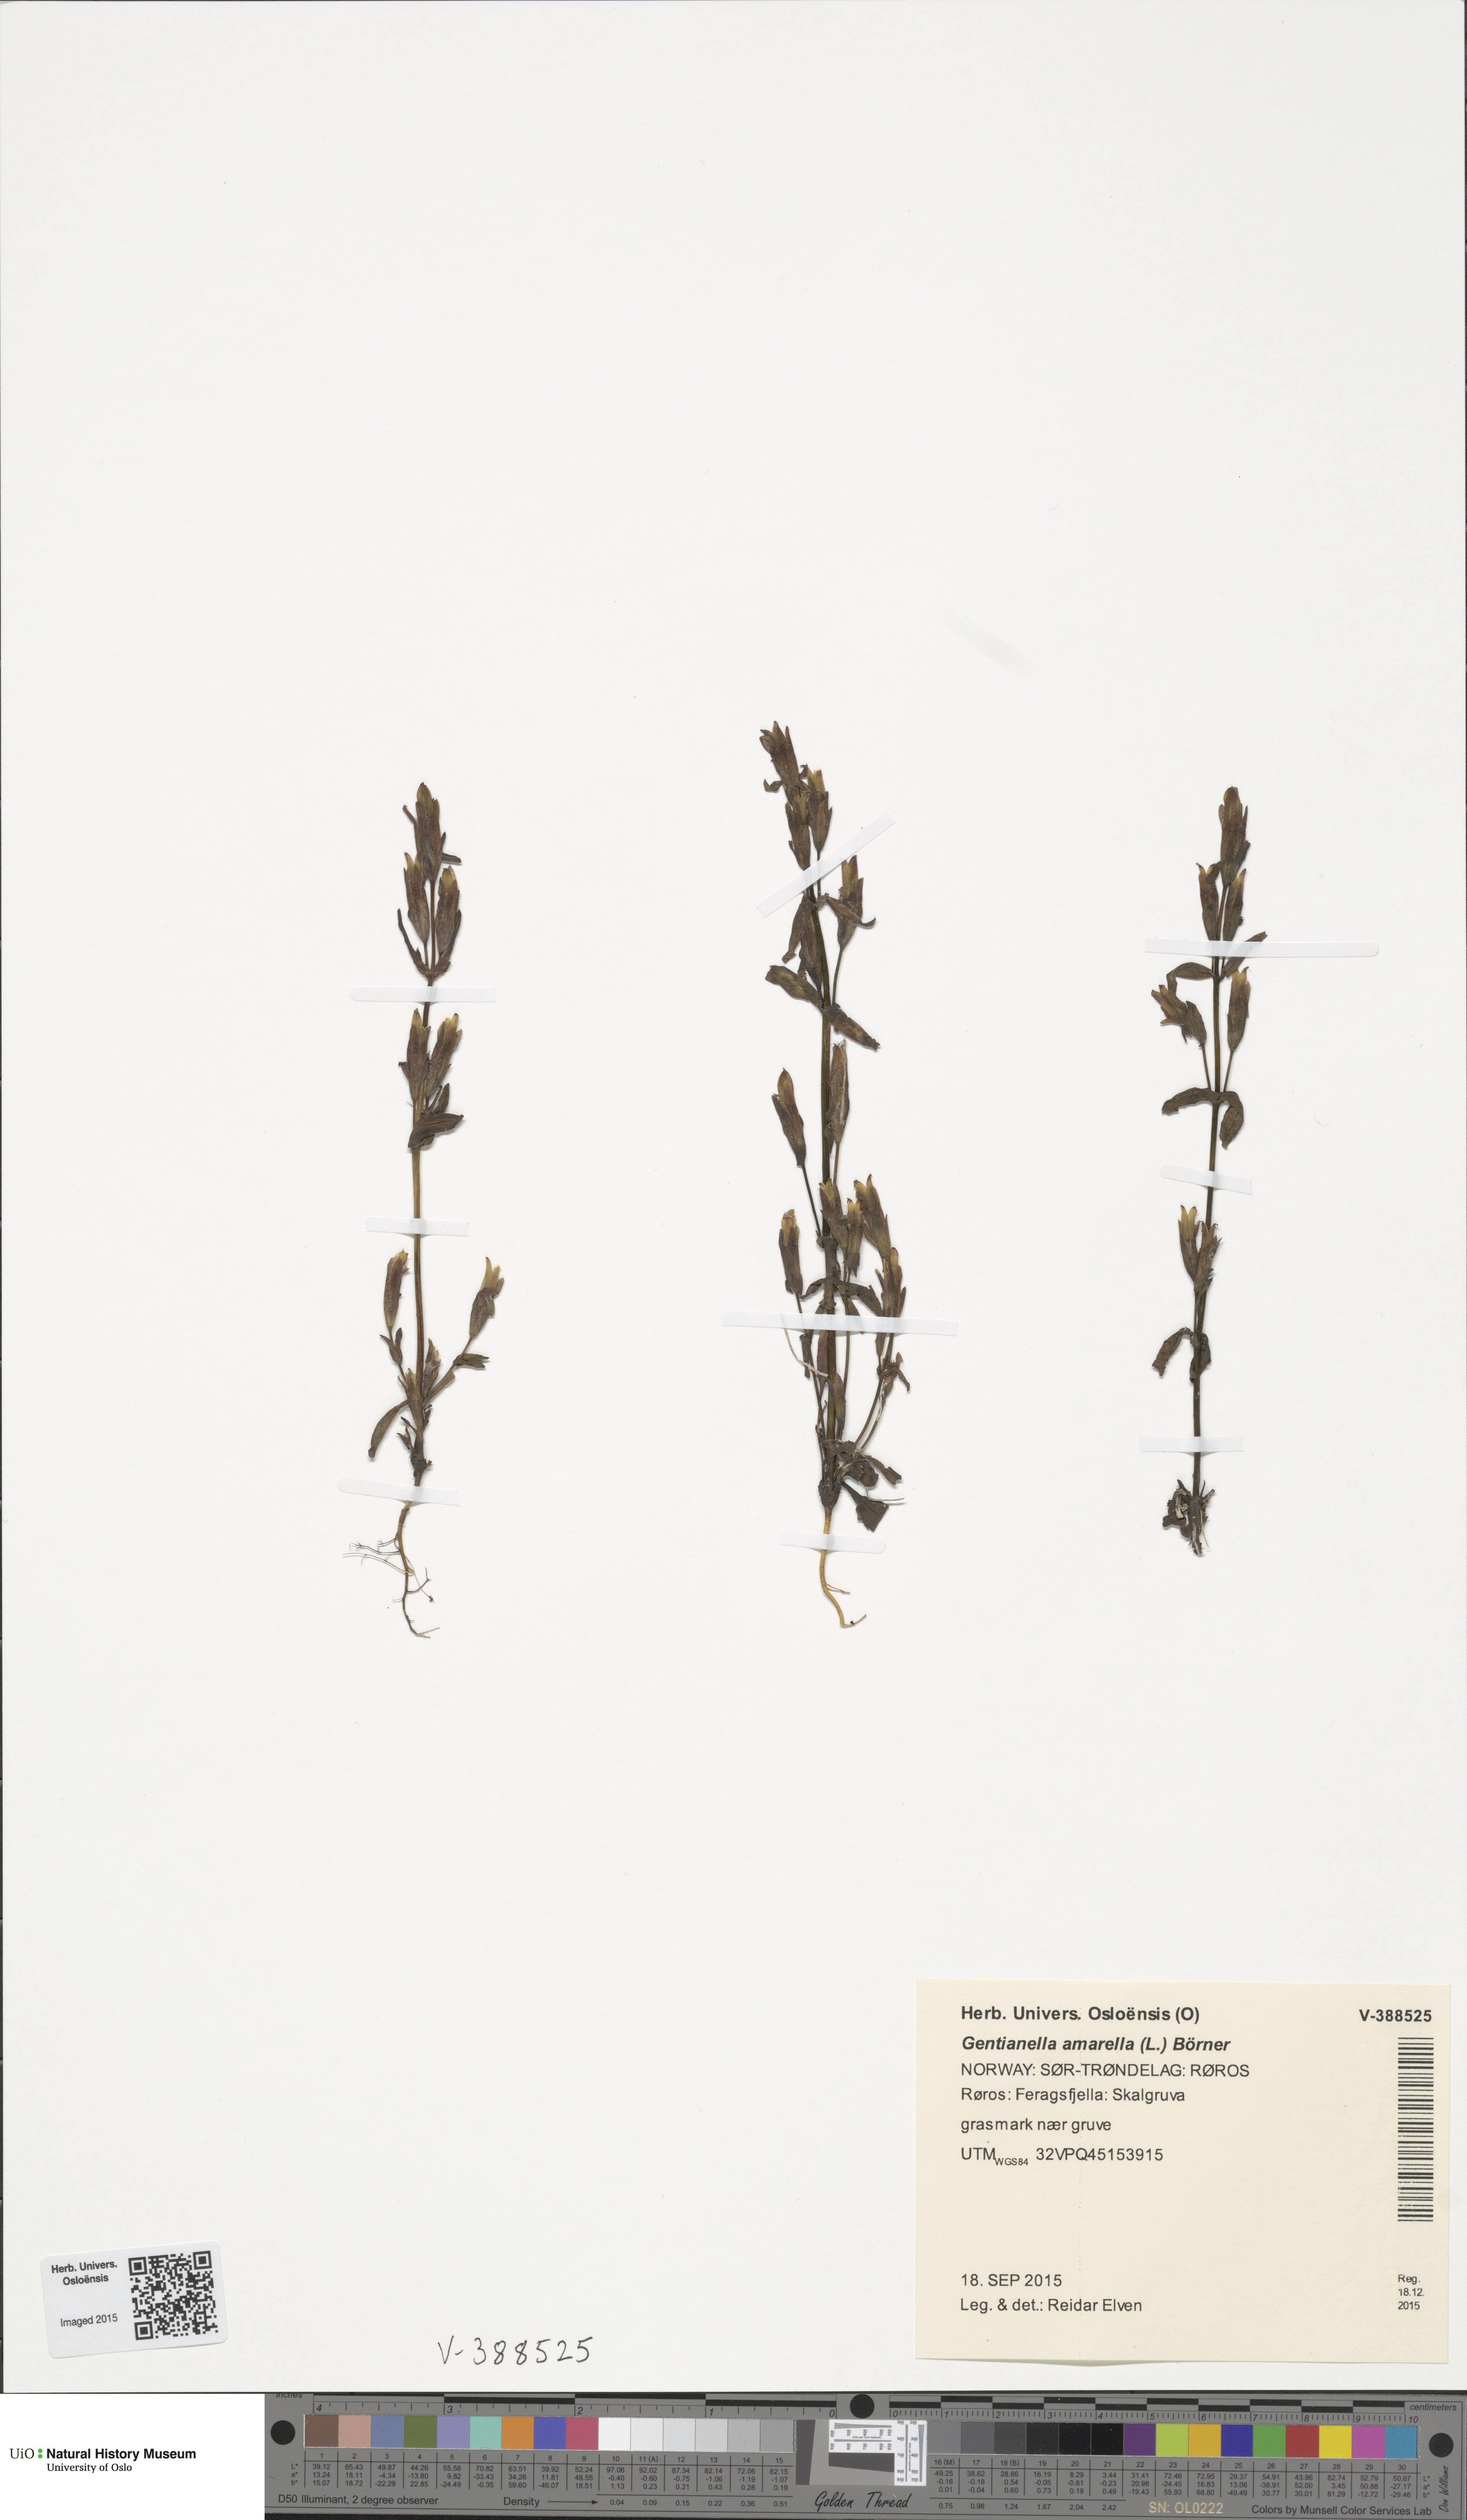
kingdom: Plantae
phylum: Tracheophyta
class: Magnoliopsida
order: Gentianales
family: Gentianaceae
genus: Gentianella
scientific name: Gentianella amarella
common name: Autumn gentian
